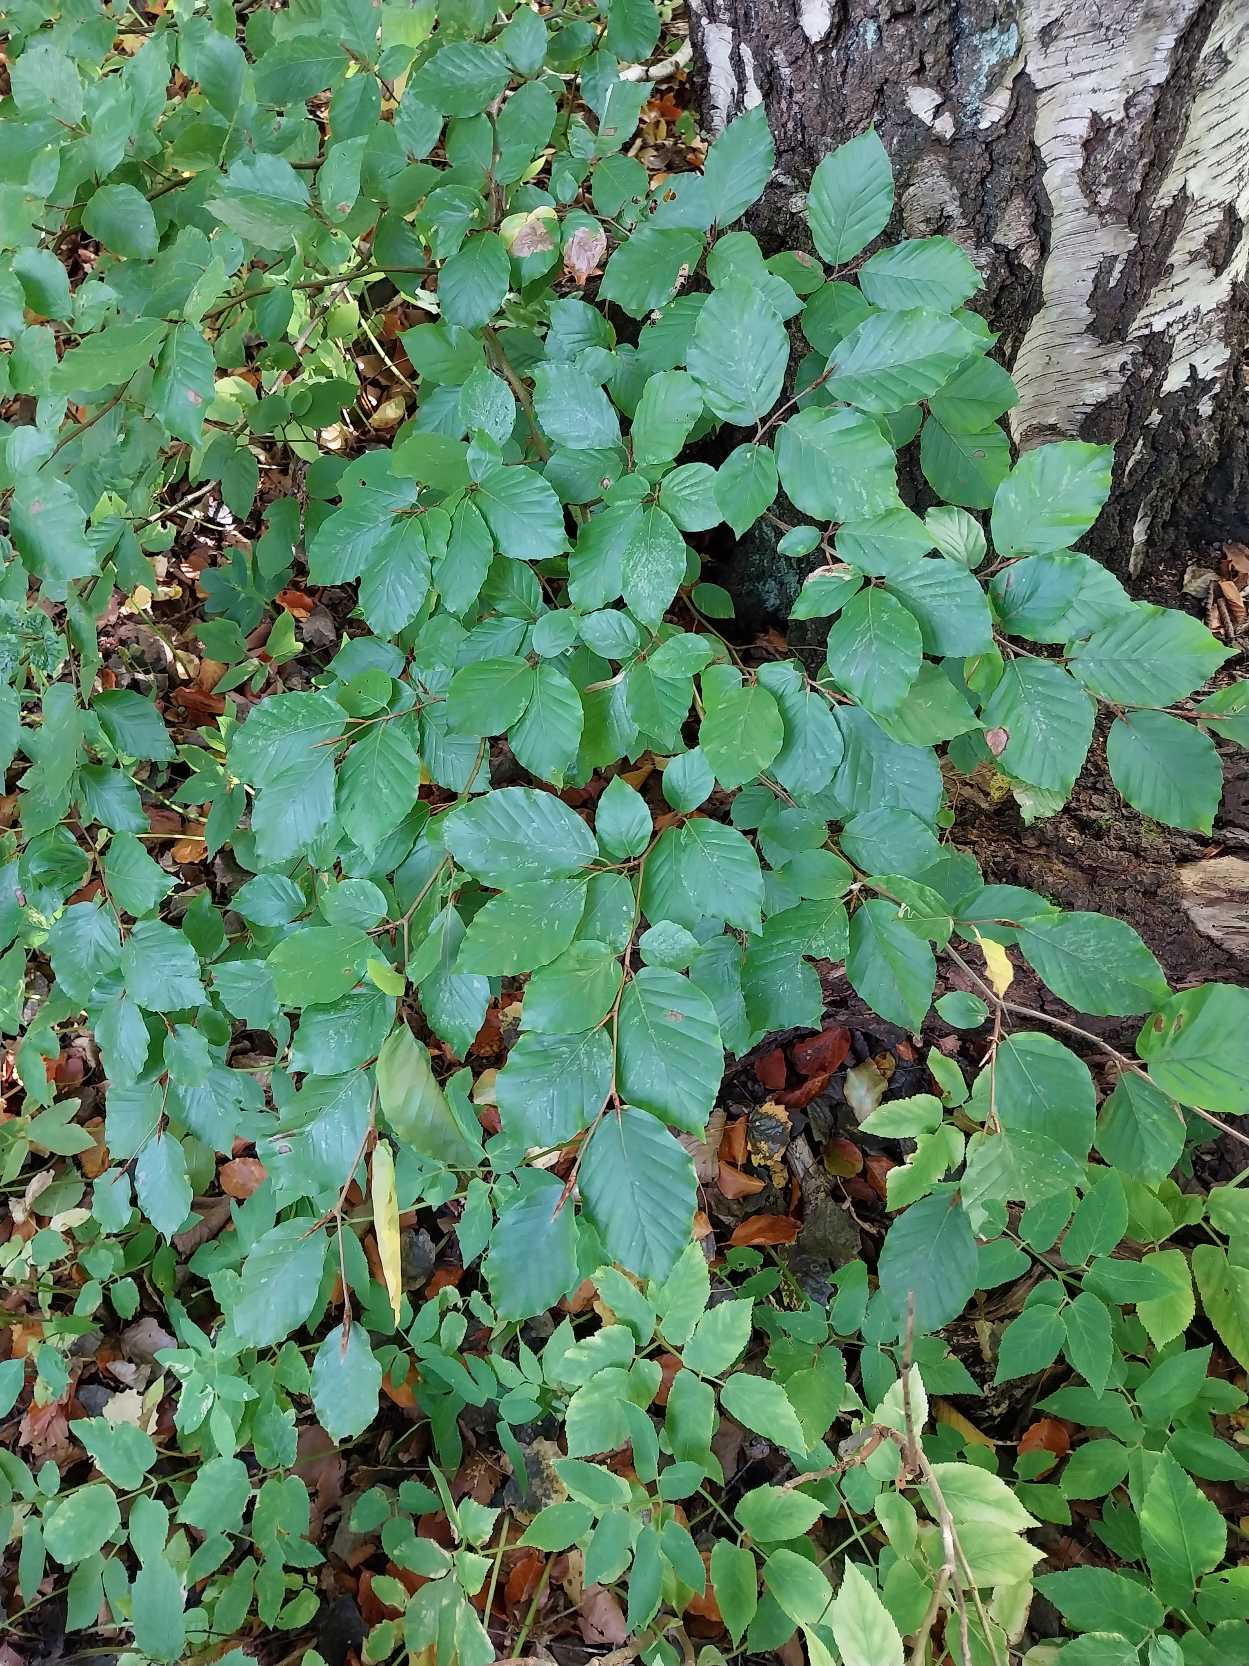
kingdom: Plantae
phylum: Tracheophyta
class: Magnoliopsida
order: Fagales
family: Fagaceae
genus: Fagus
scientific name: Fagus sylvatica
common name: Bøg
